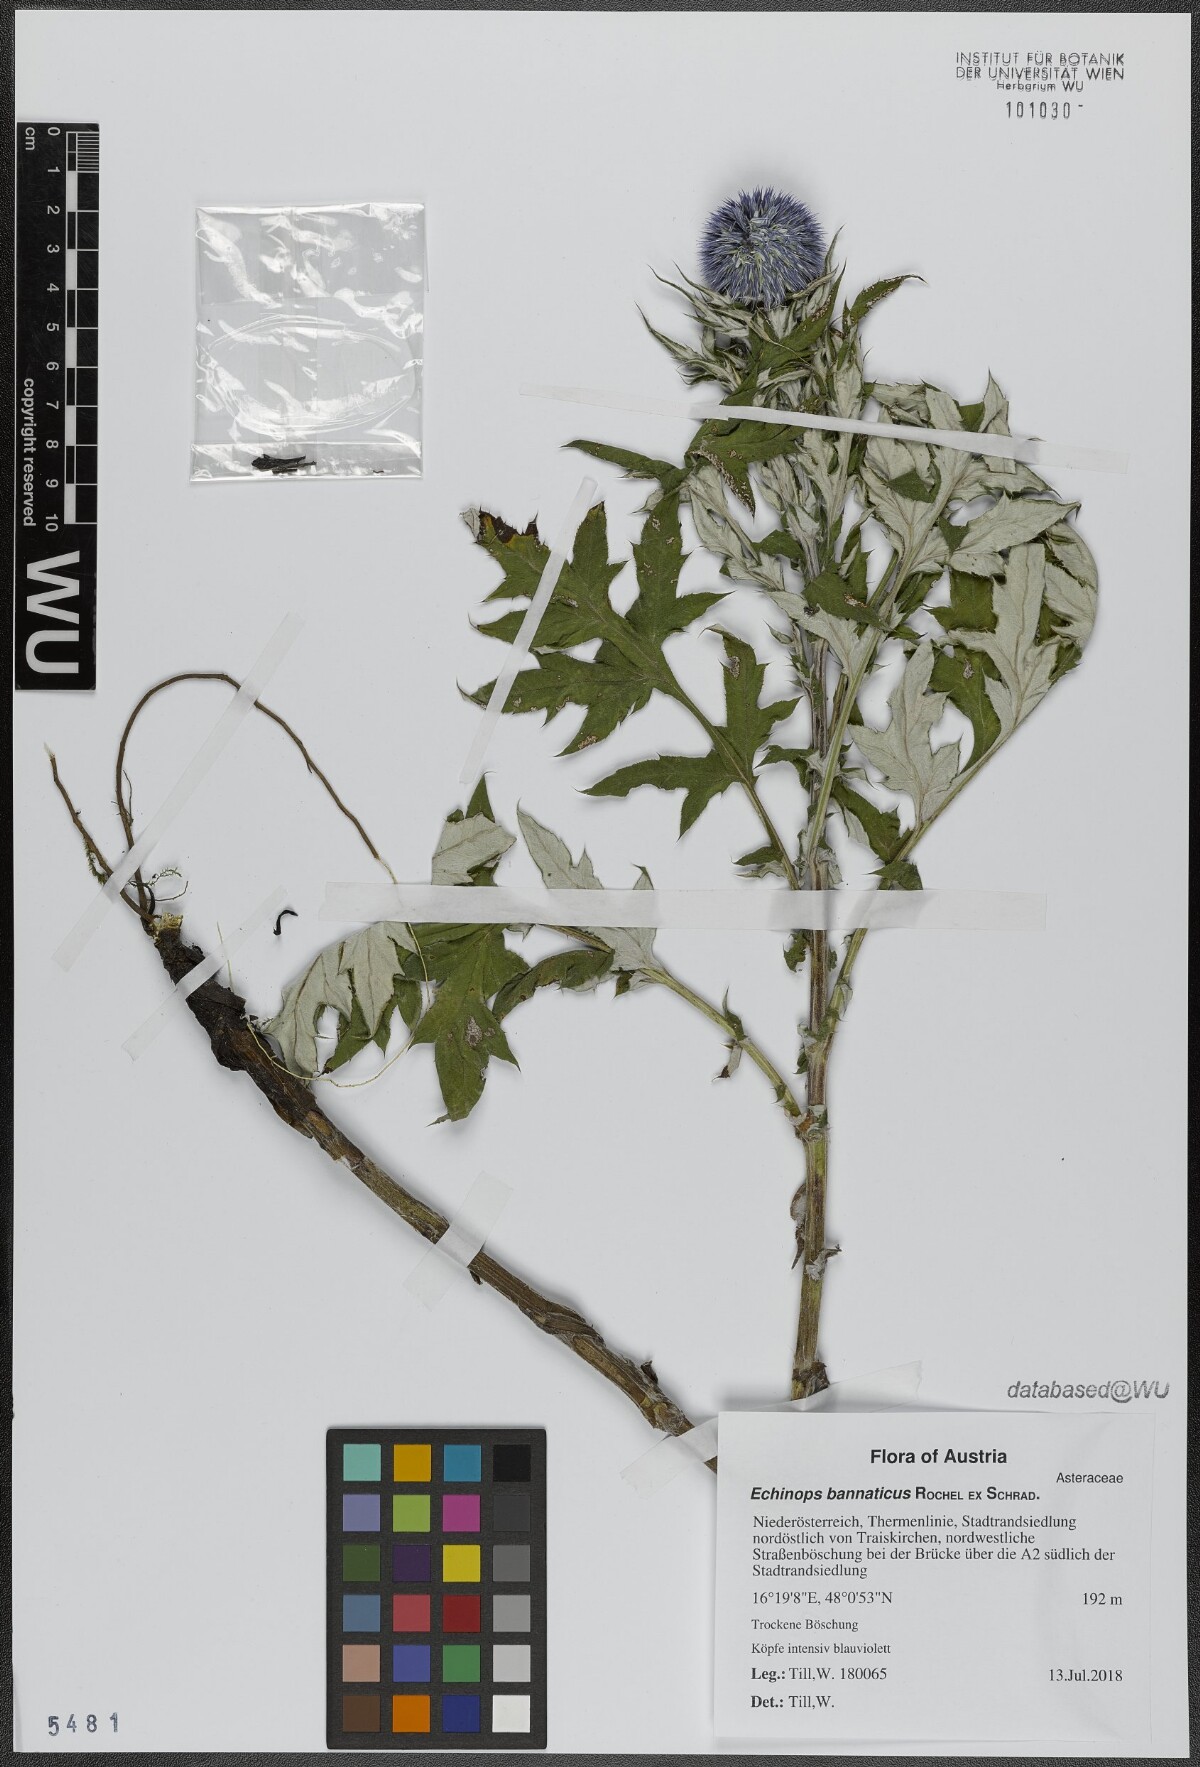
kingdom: Plantae
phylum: Tracheophyta
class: Magnoliopsida
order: Asterales
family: Asteraceae
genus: Echinops
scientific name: Echinops bannaticus
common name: Blue globe-thistle
